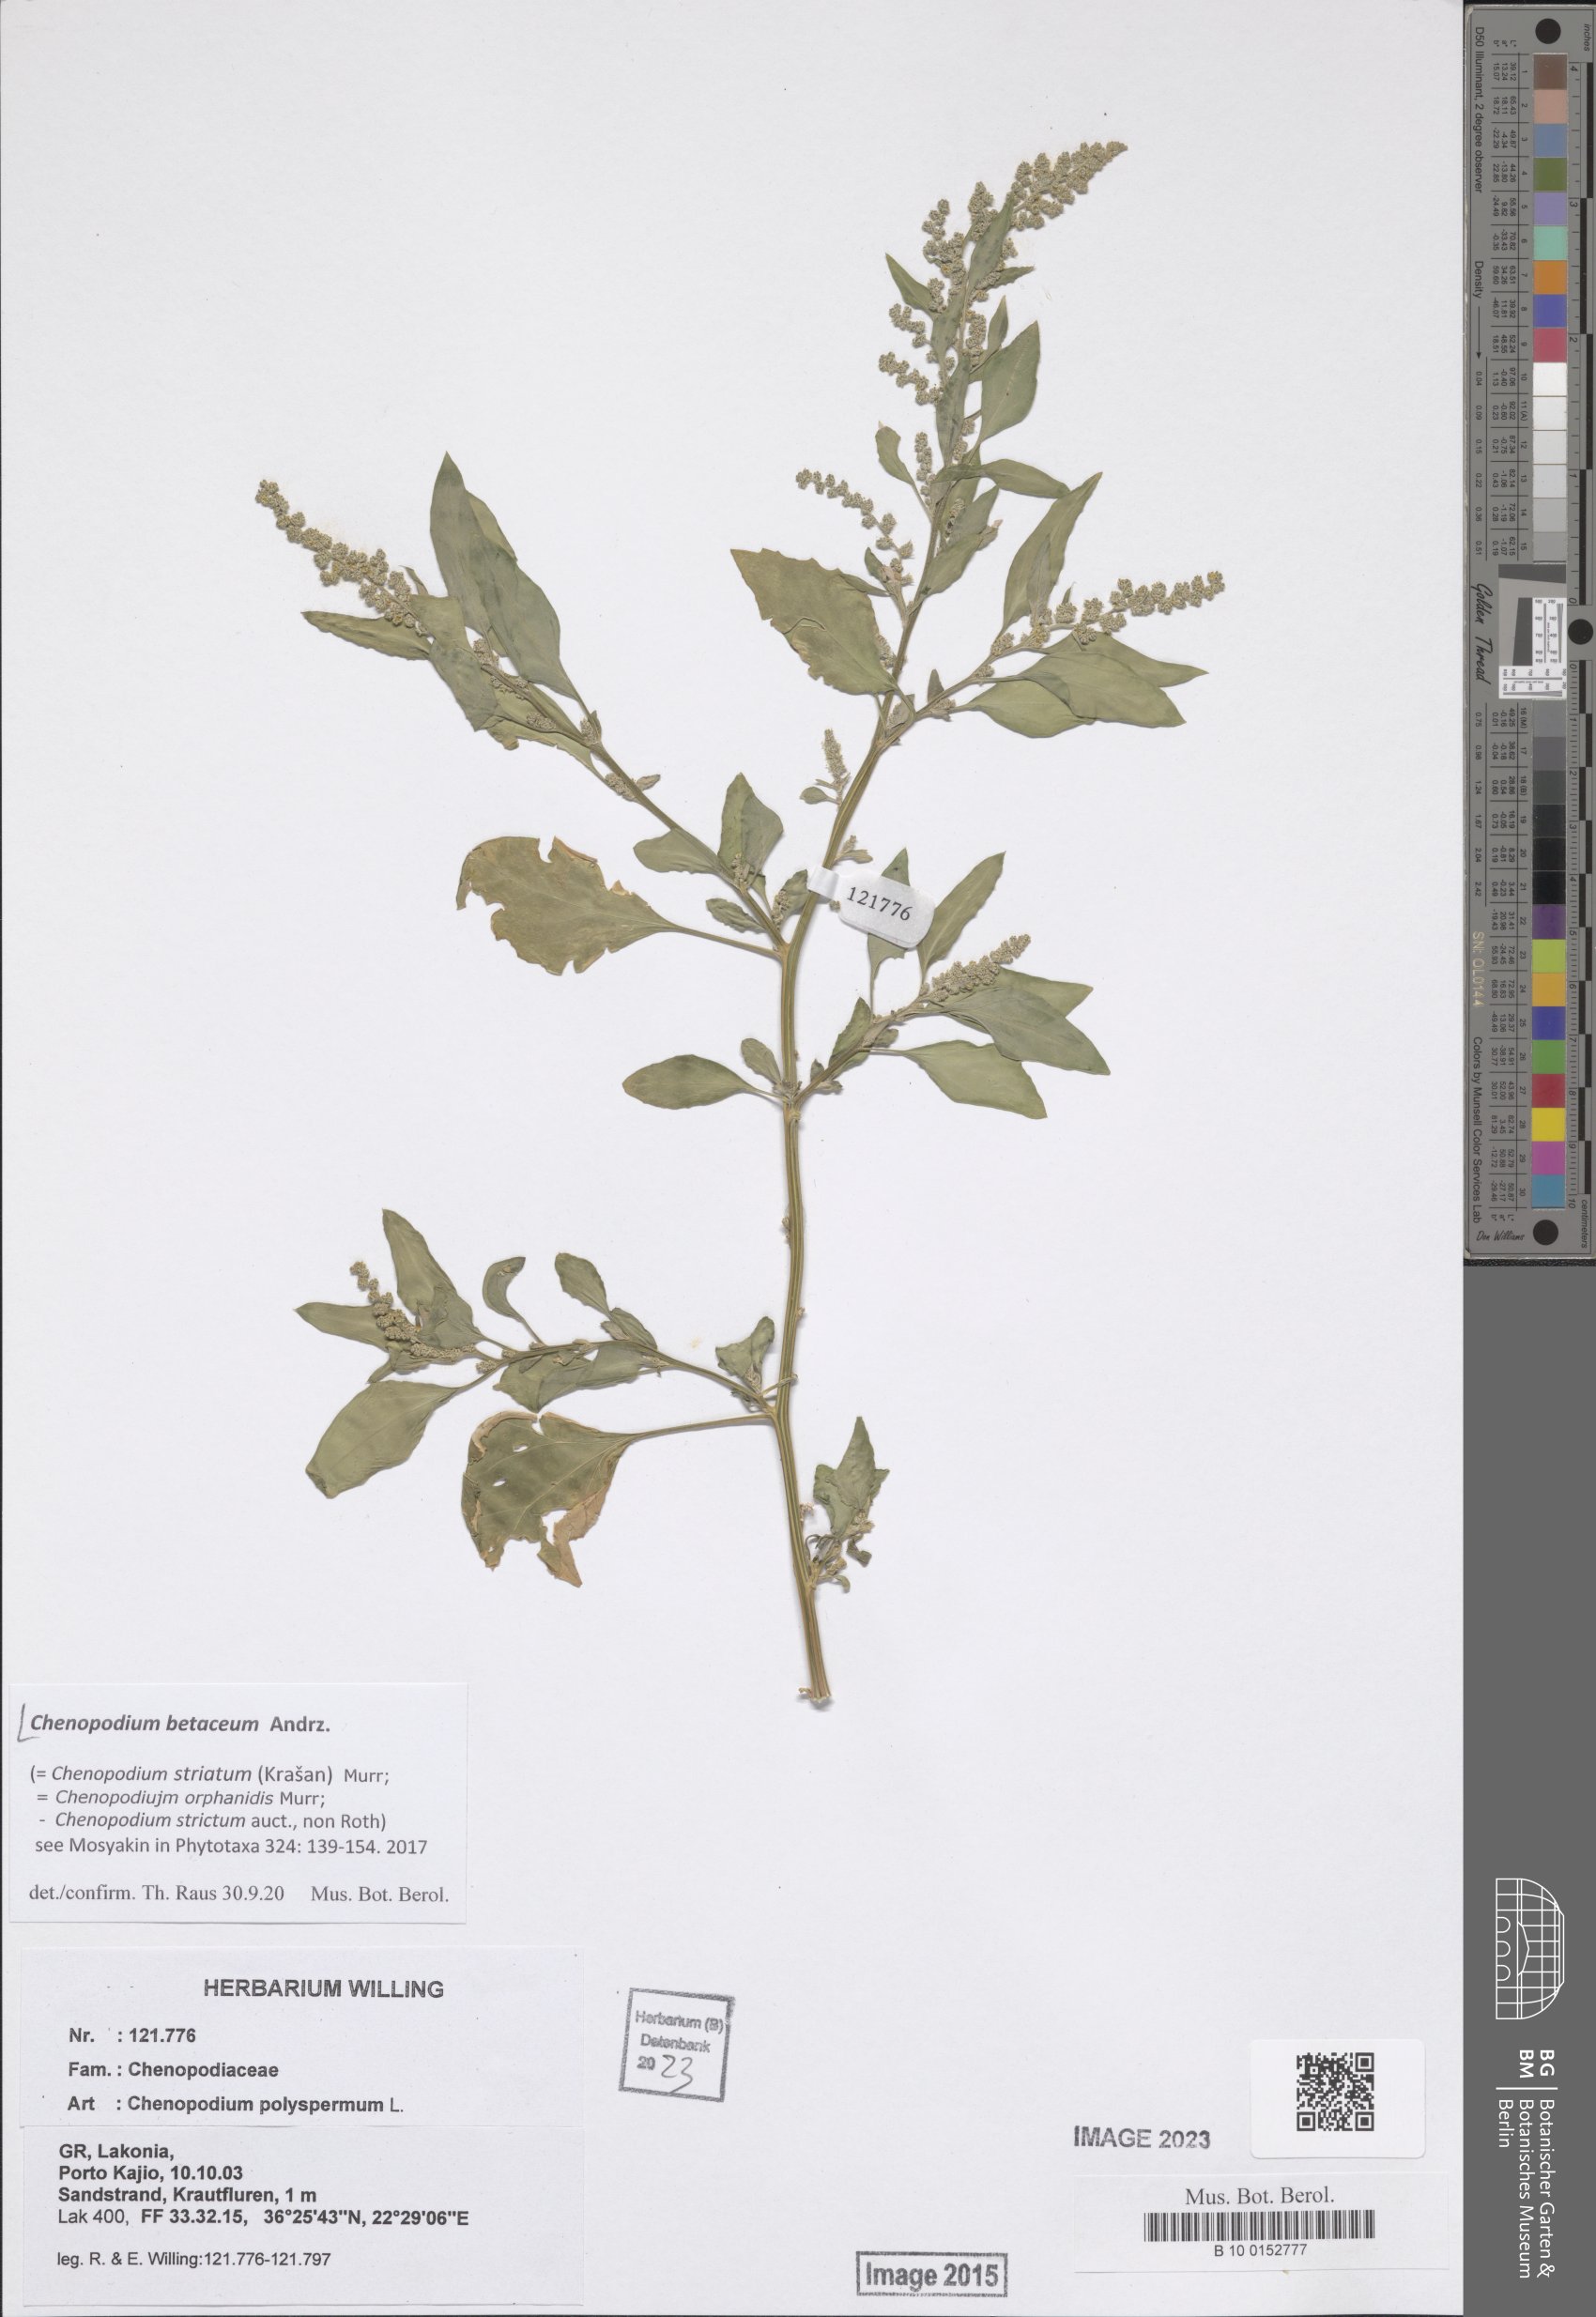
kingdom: Plantae
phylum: Tracheophyta
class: Magnoliopsida
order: Caryophyllales
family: Amaranthaceae
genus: Chenopodium
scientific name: Chenopodium betaceum
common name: Striped goosefoot
